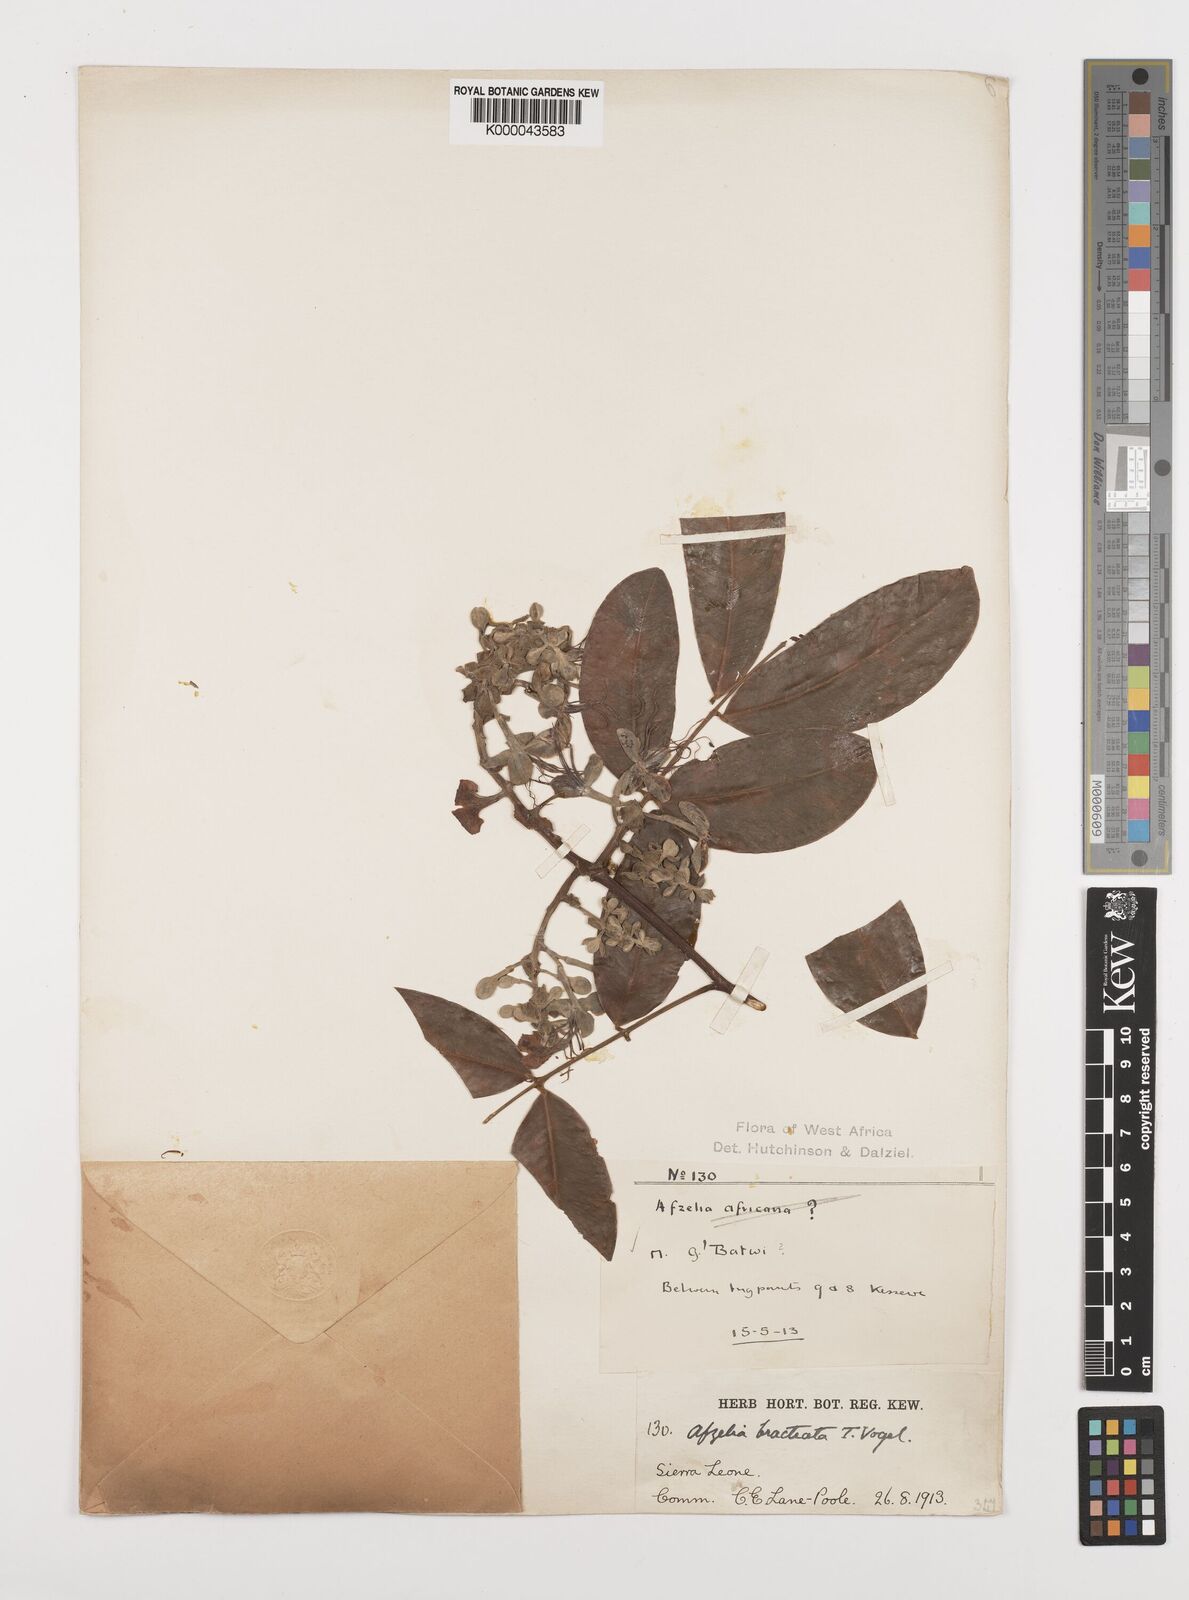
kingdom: Plantae
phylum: Tracheophyta
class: Magnoliopsida
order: Fabales
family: Fabaceae
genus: Afzelia
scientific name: Afzelia
